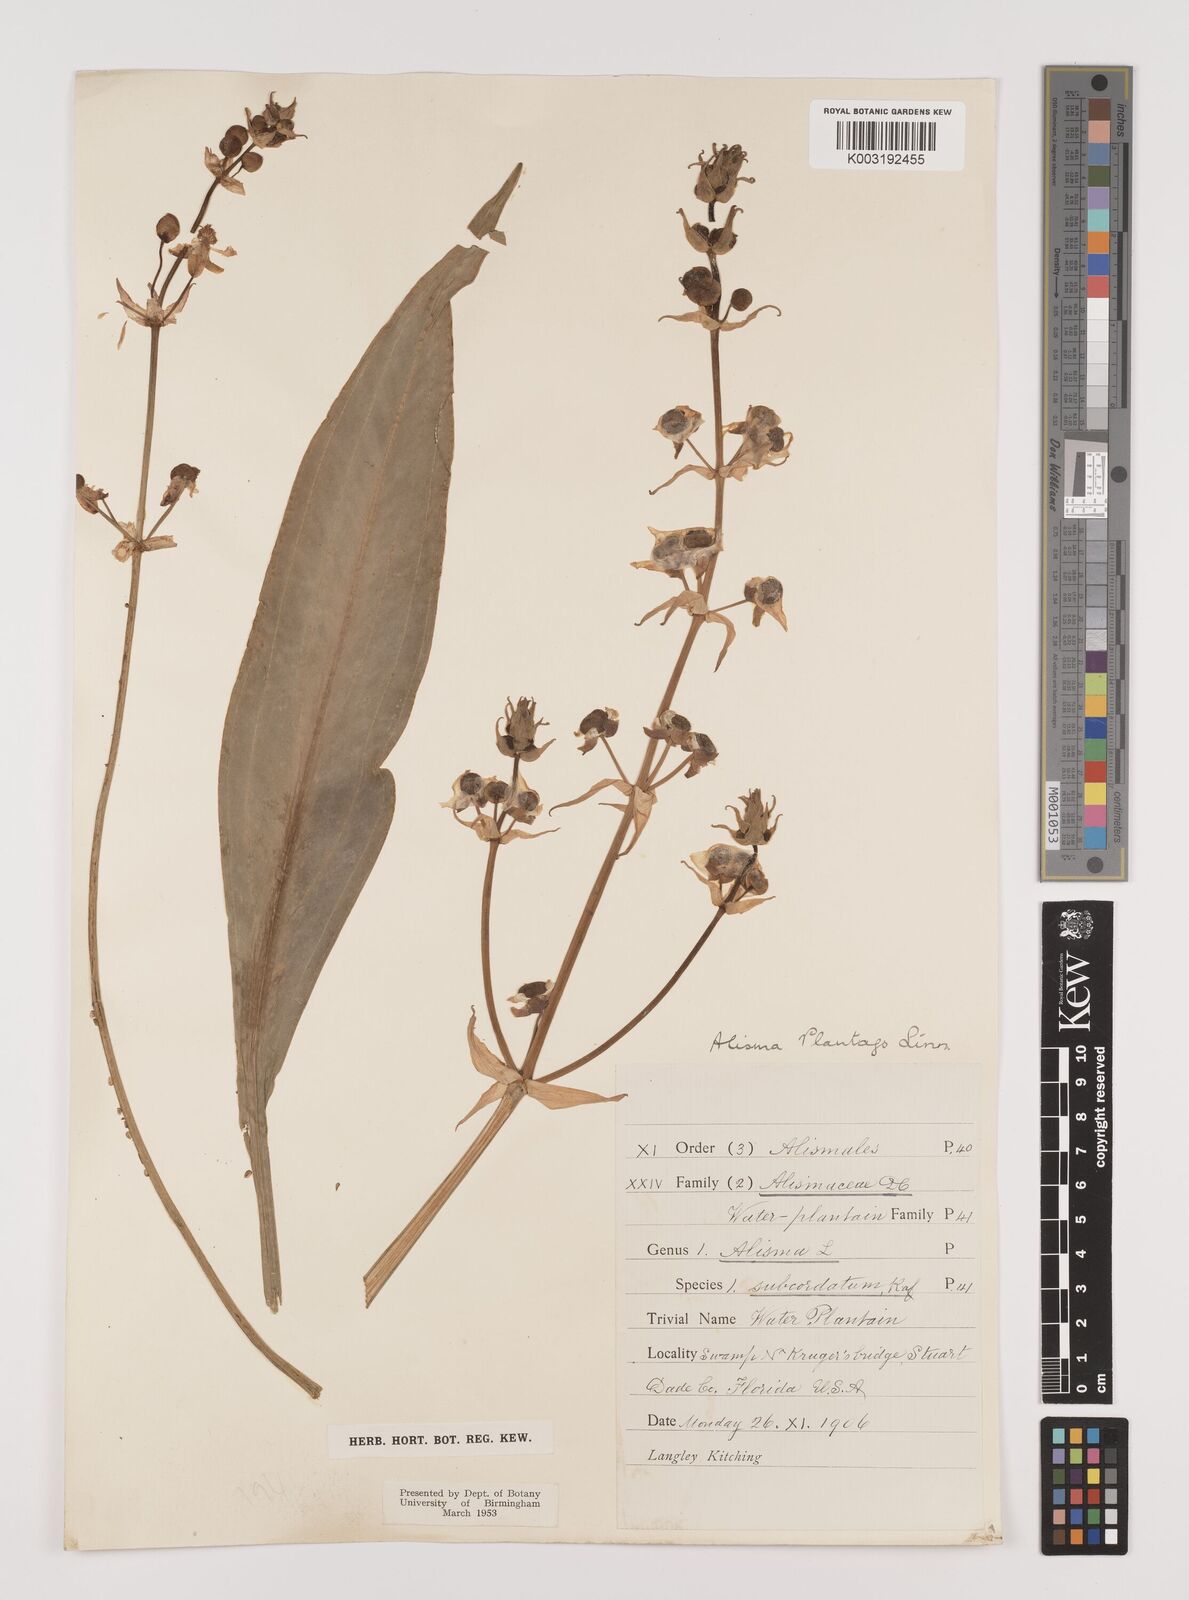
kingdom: Plantae
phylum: Tracheophyta
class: Liliopsida
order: Alismatales
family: Alismataceae
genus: Alisma
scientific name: Alisma plantago-aquatica
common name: Water-plantain
